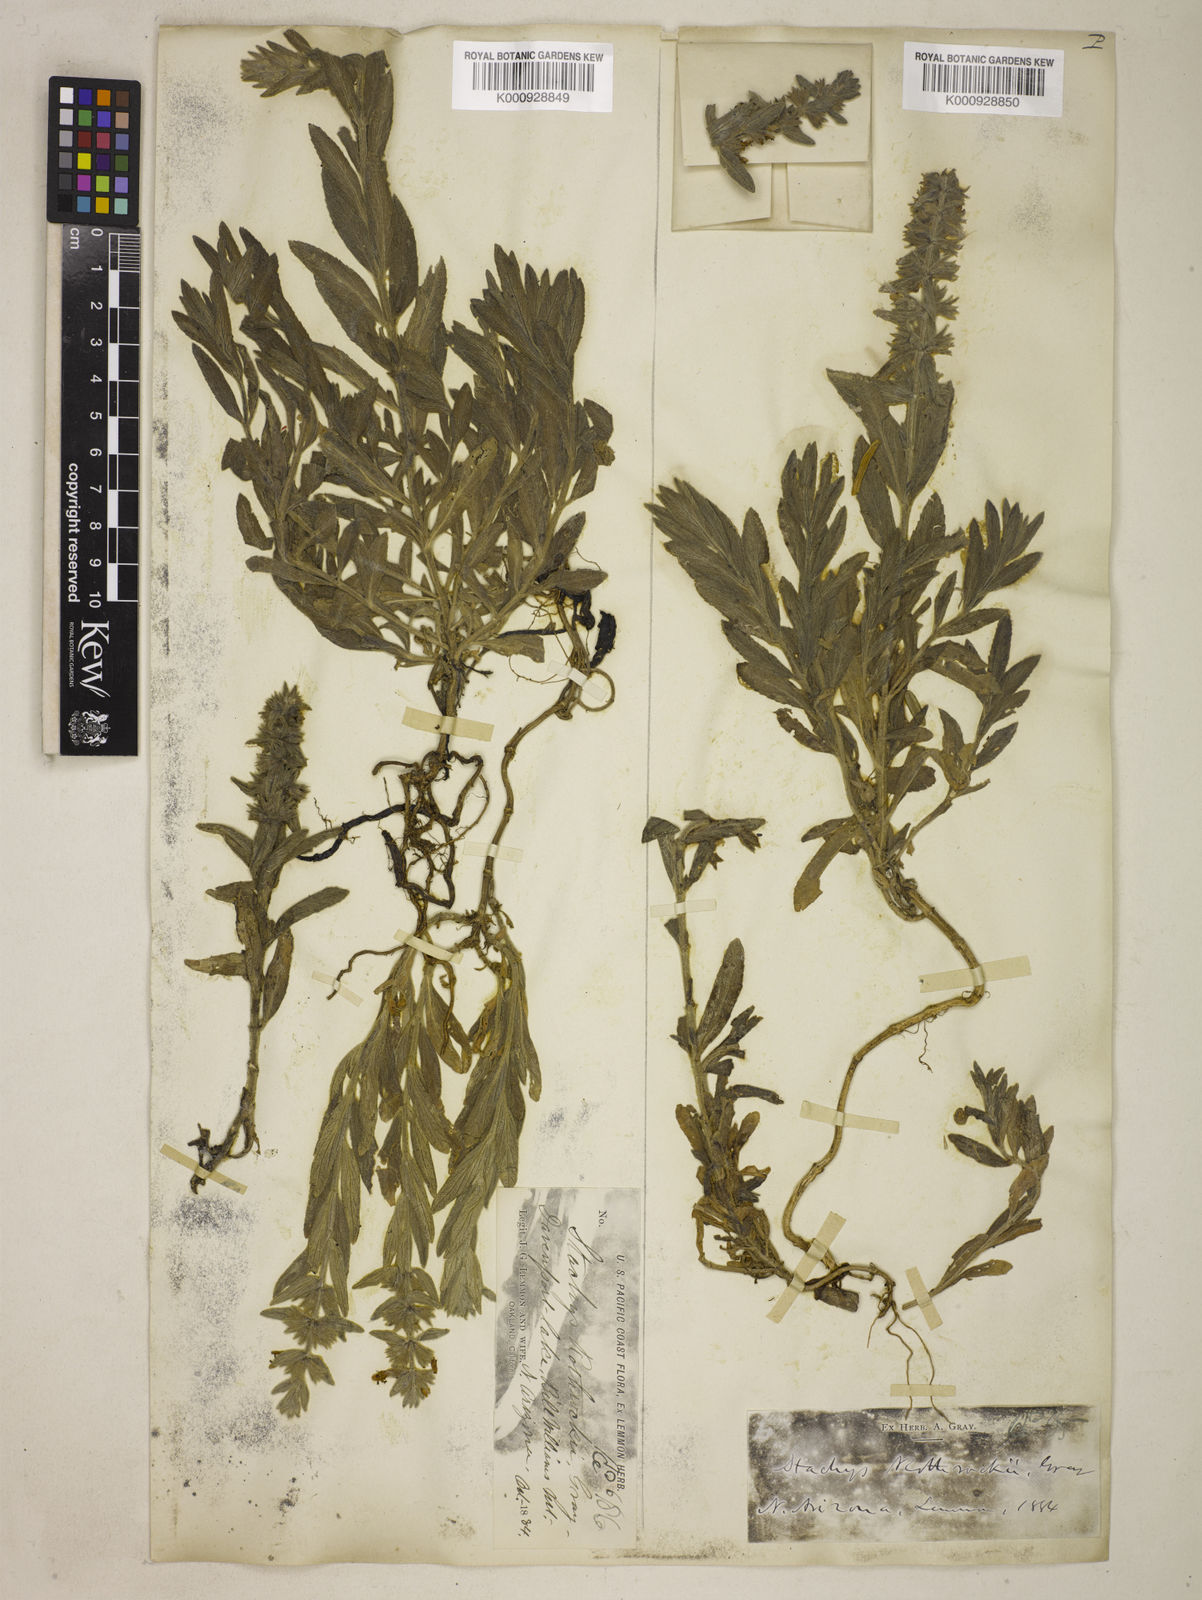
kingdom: Plantae
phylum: Tracheophyta
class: Magnoliopsida
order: Lamiales
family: Lamiaceae
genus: Stachys
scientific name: Stachys rothrockii
